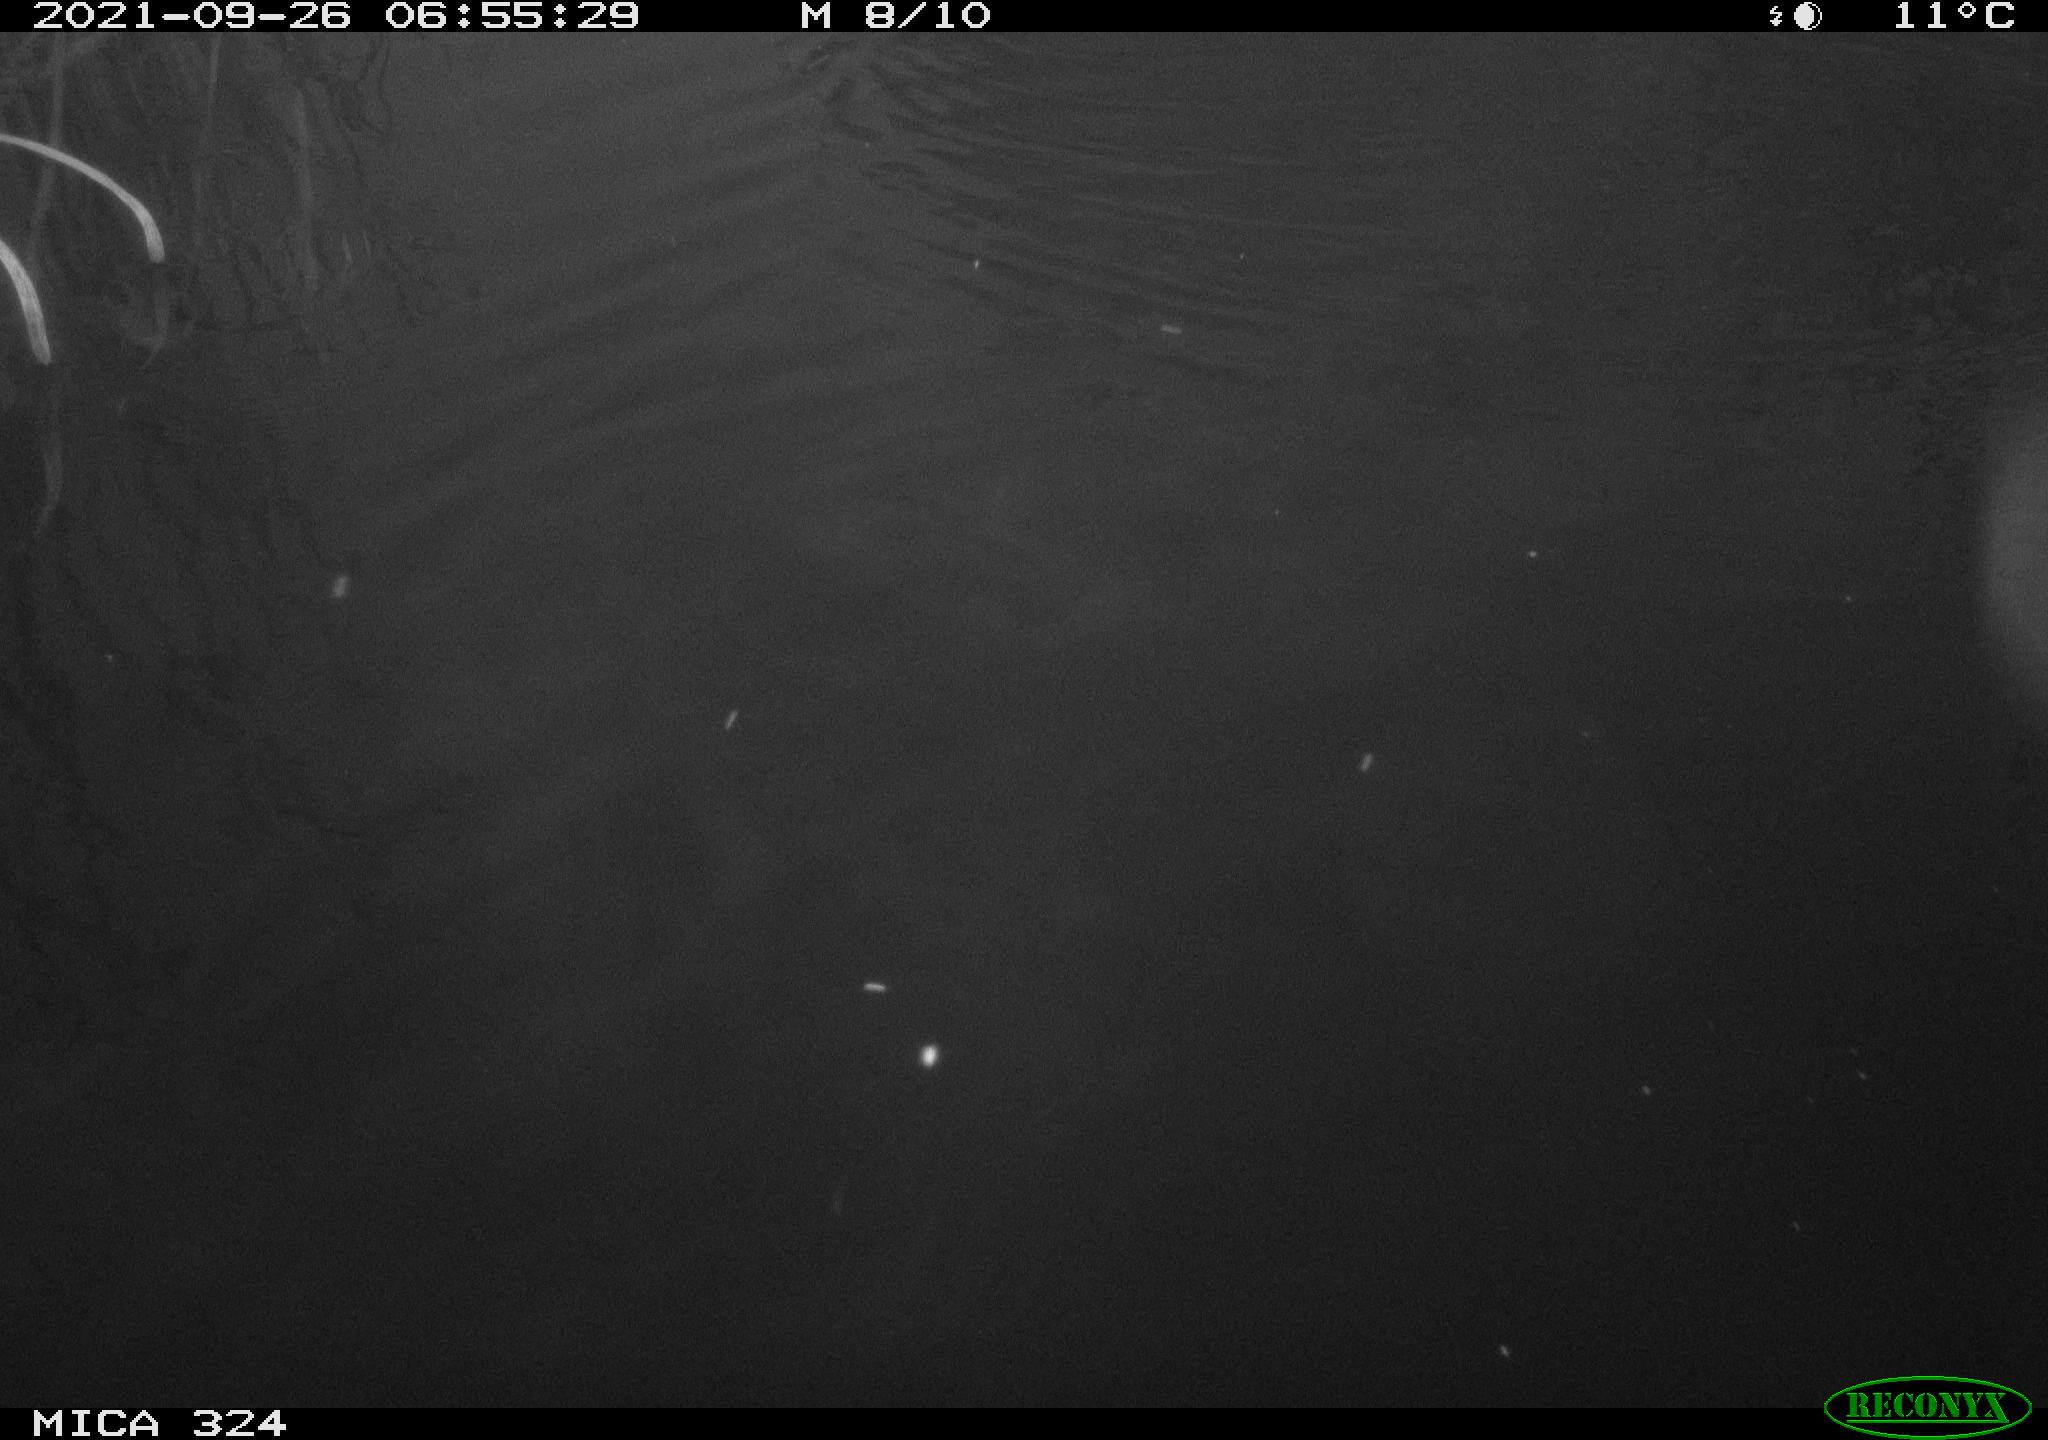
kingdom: Animalia
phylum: Chordata
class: Mammalia
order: Rodentia
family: Cricetidae
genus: Ondatra
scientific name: Ondatra zibethicus
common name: Muskrat
